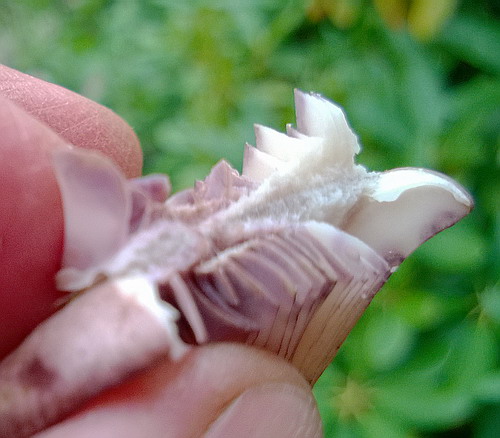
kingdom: Fungi
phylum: Basidiomycota
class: Agaricomycetes
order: Russulales
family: Russulaceae
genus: Lactarius
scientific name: Lactarius luridus
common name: violetbrun mælkehat
